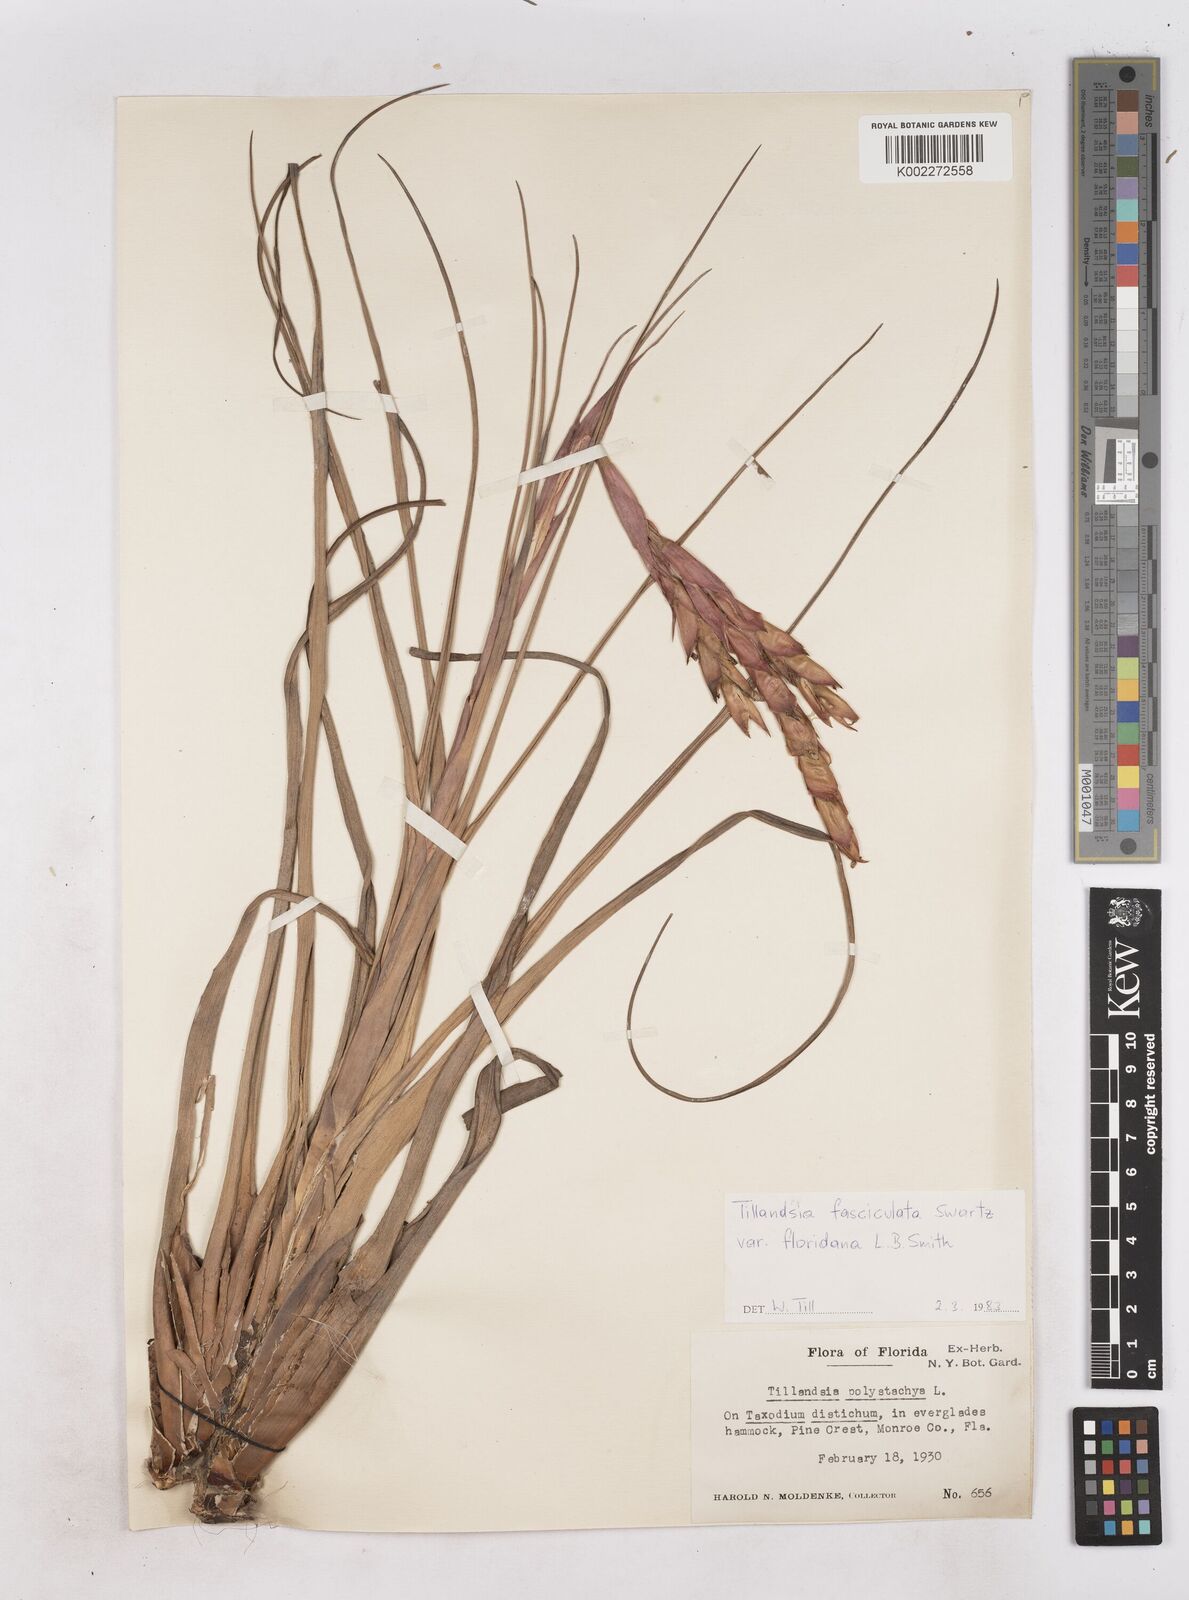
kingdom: Plantae
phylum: Tracheophyta
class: Liliopsida
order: Poales
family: Bromeliaceae
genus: Tillandsia
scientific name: Tillandsia floridana
